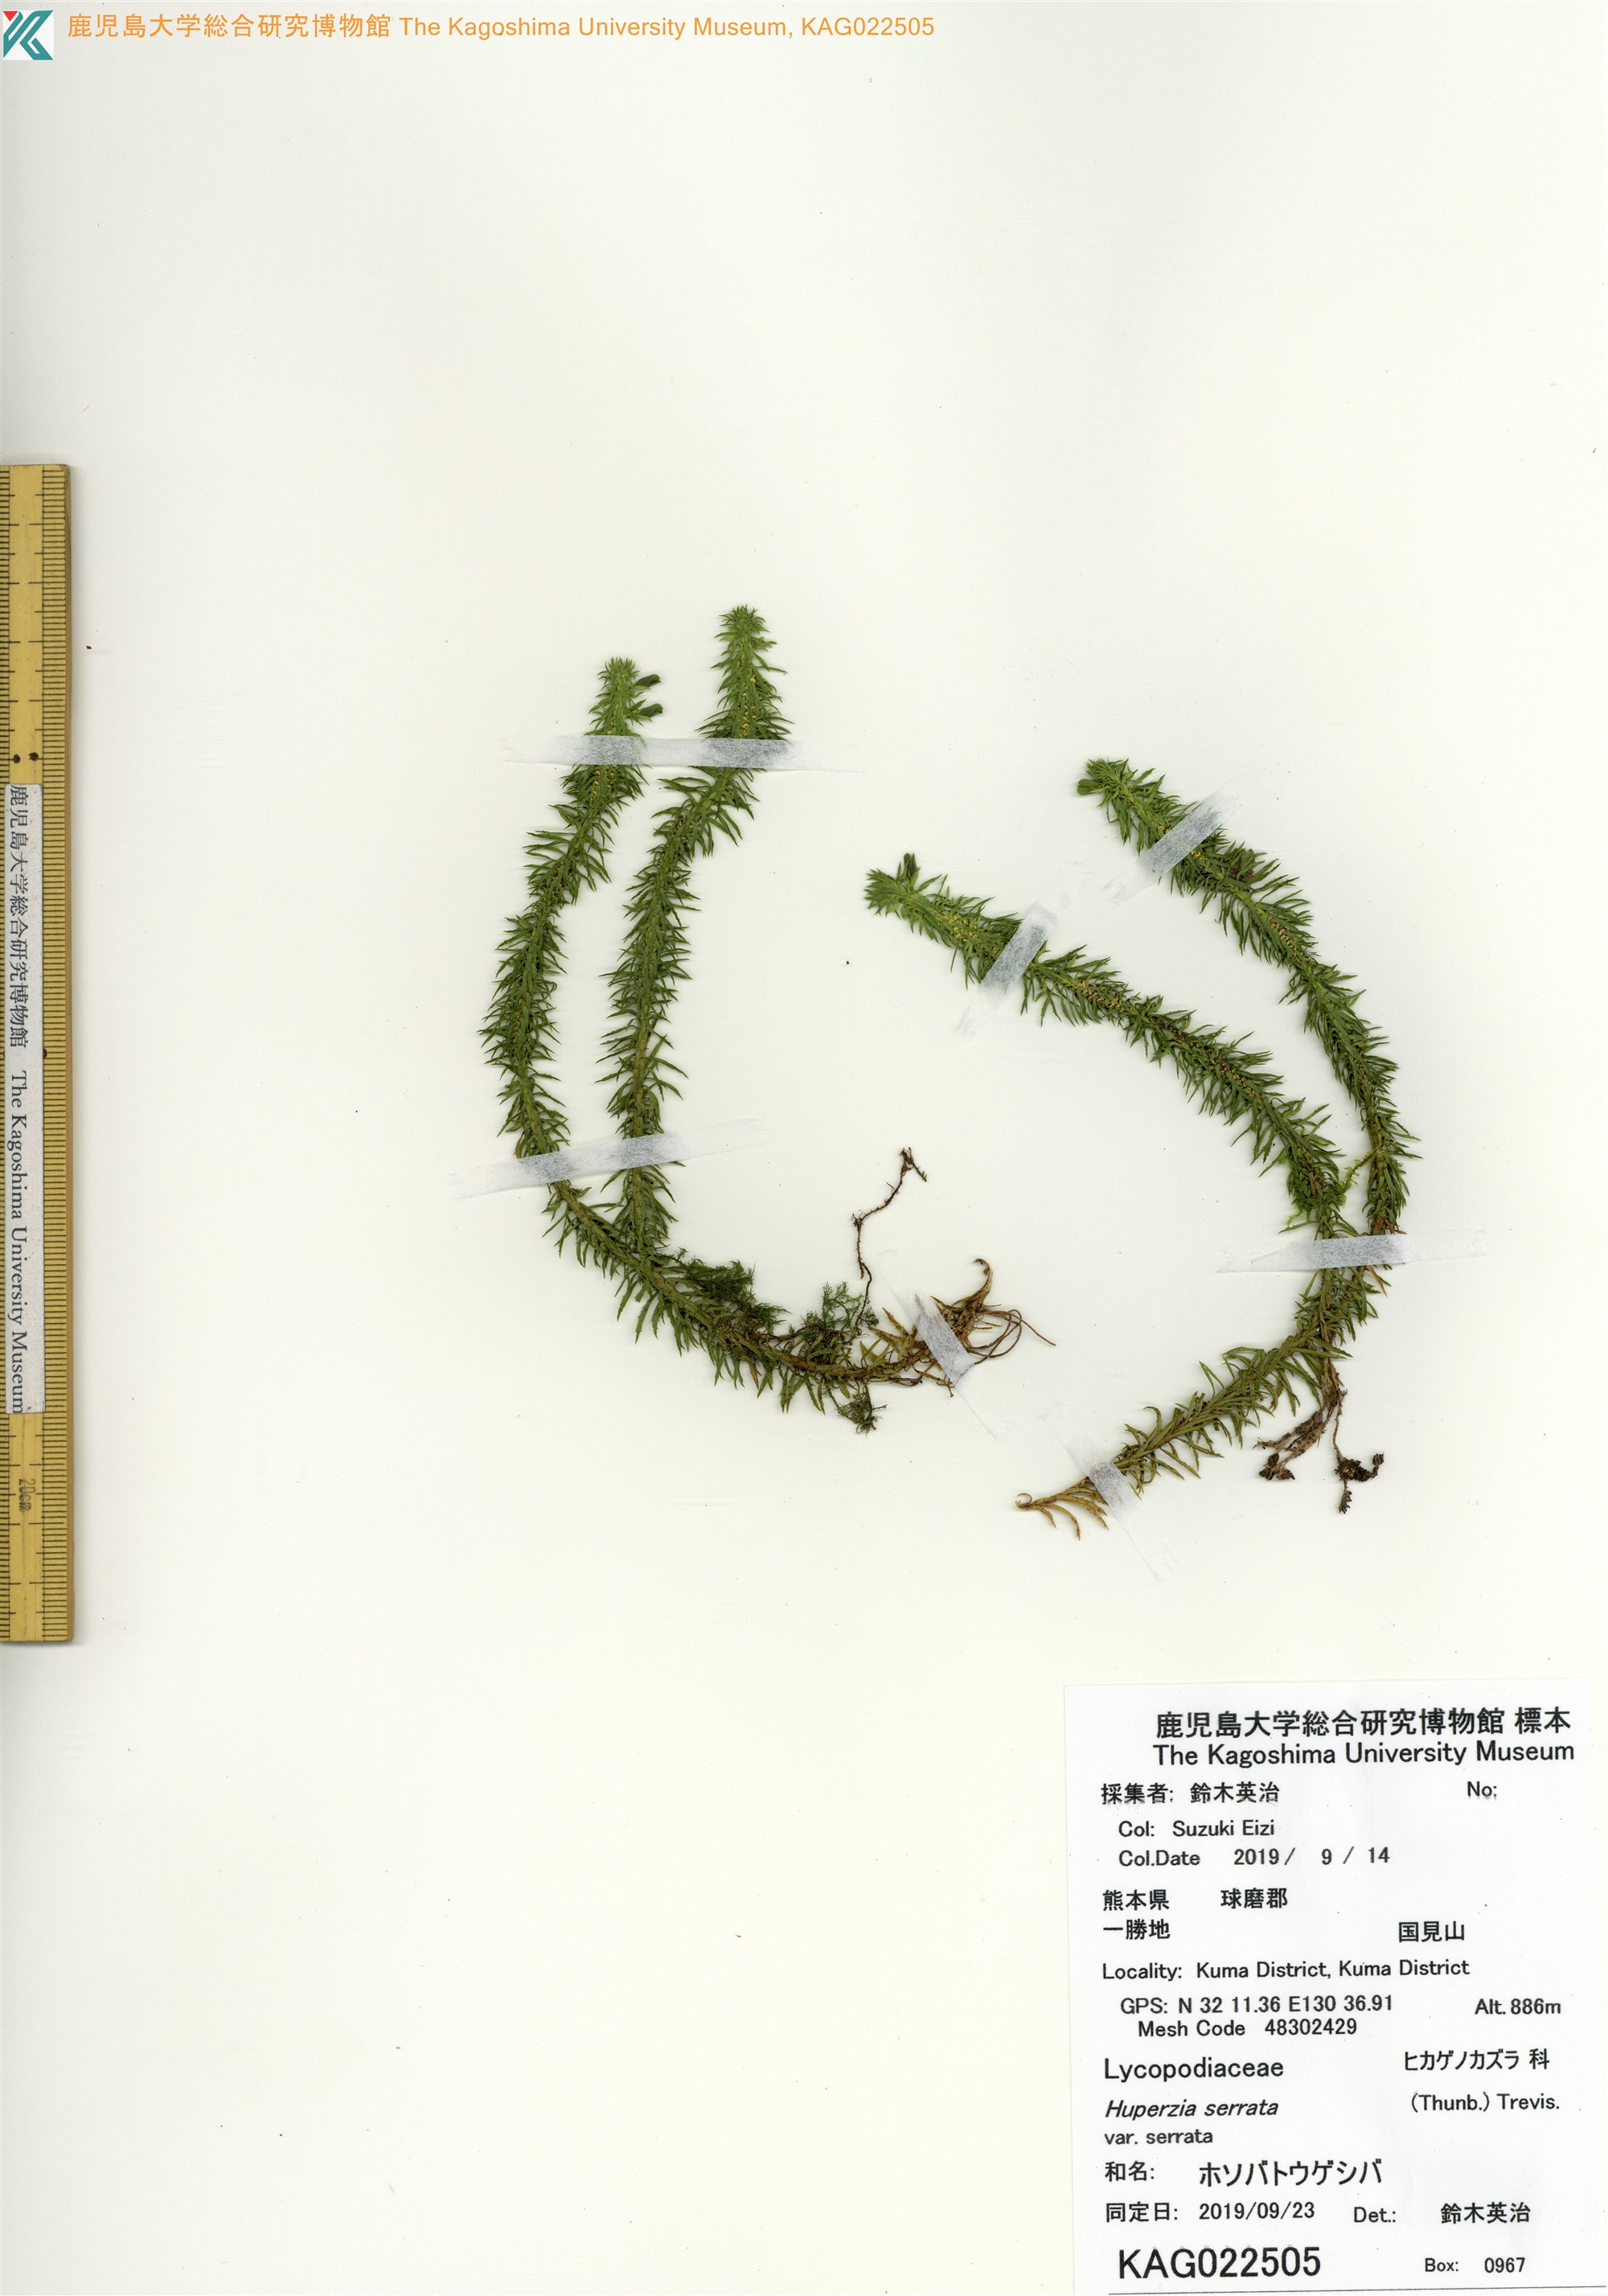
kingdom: Plantae
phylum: Tracheophyta
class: Lycopodiopsida
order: Lycopodiales
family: Lycopodiaceae
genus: Huperzia
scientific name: Huperzia serrata
